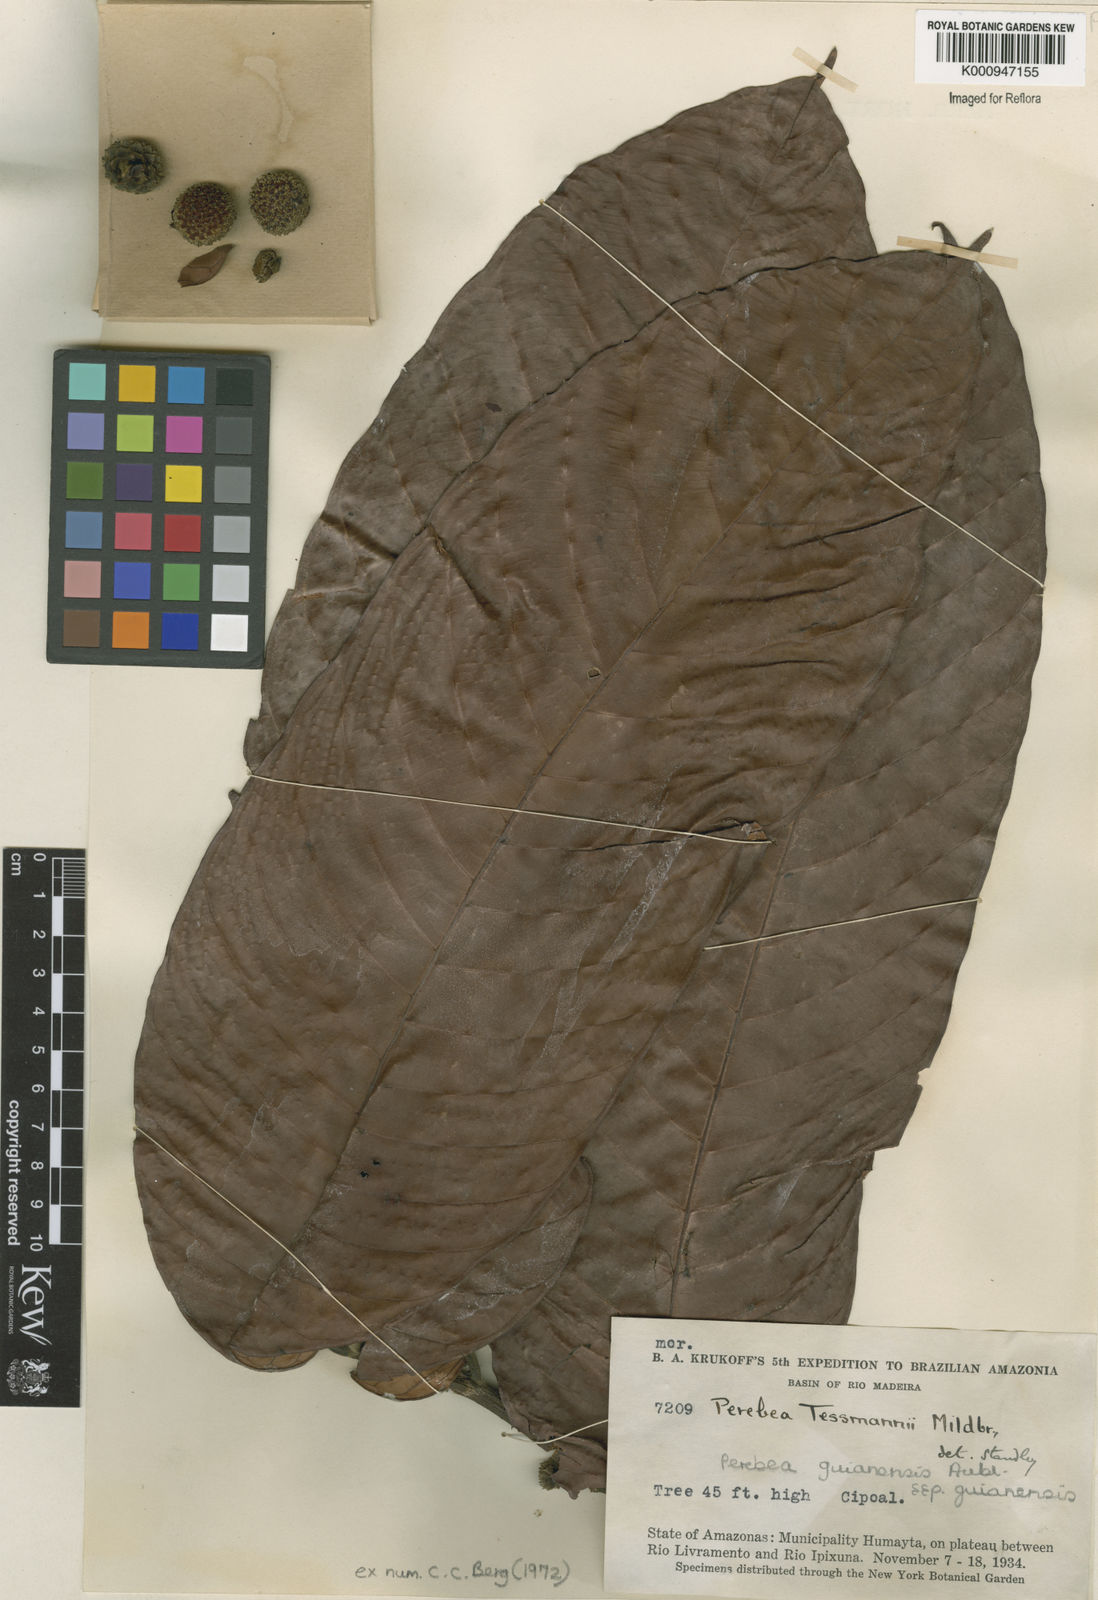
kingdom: Plantae
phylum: Tracheophyta
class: Magnoliopsida
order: Rosales
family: Moraceae
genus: Perebea
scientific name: Perebea
